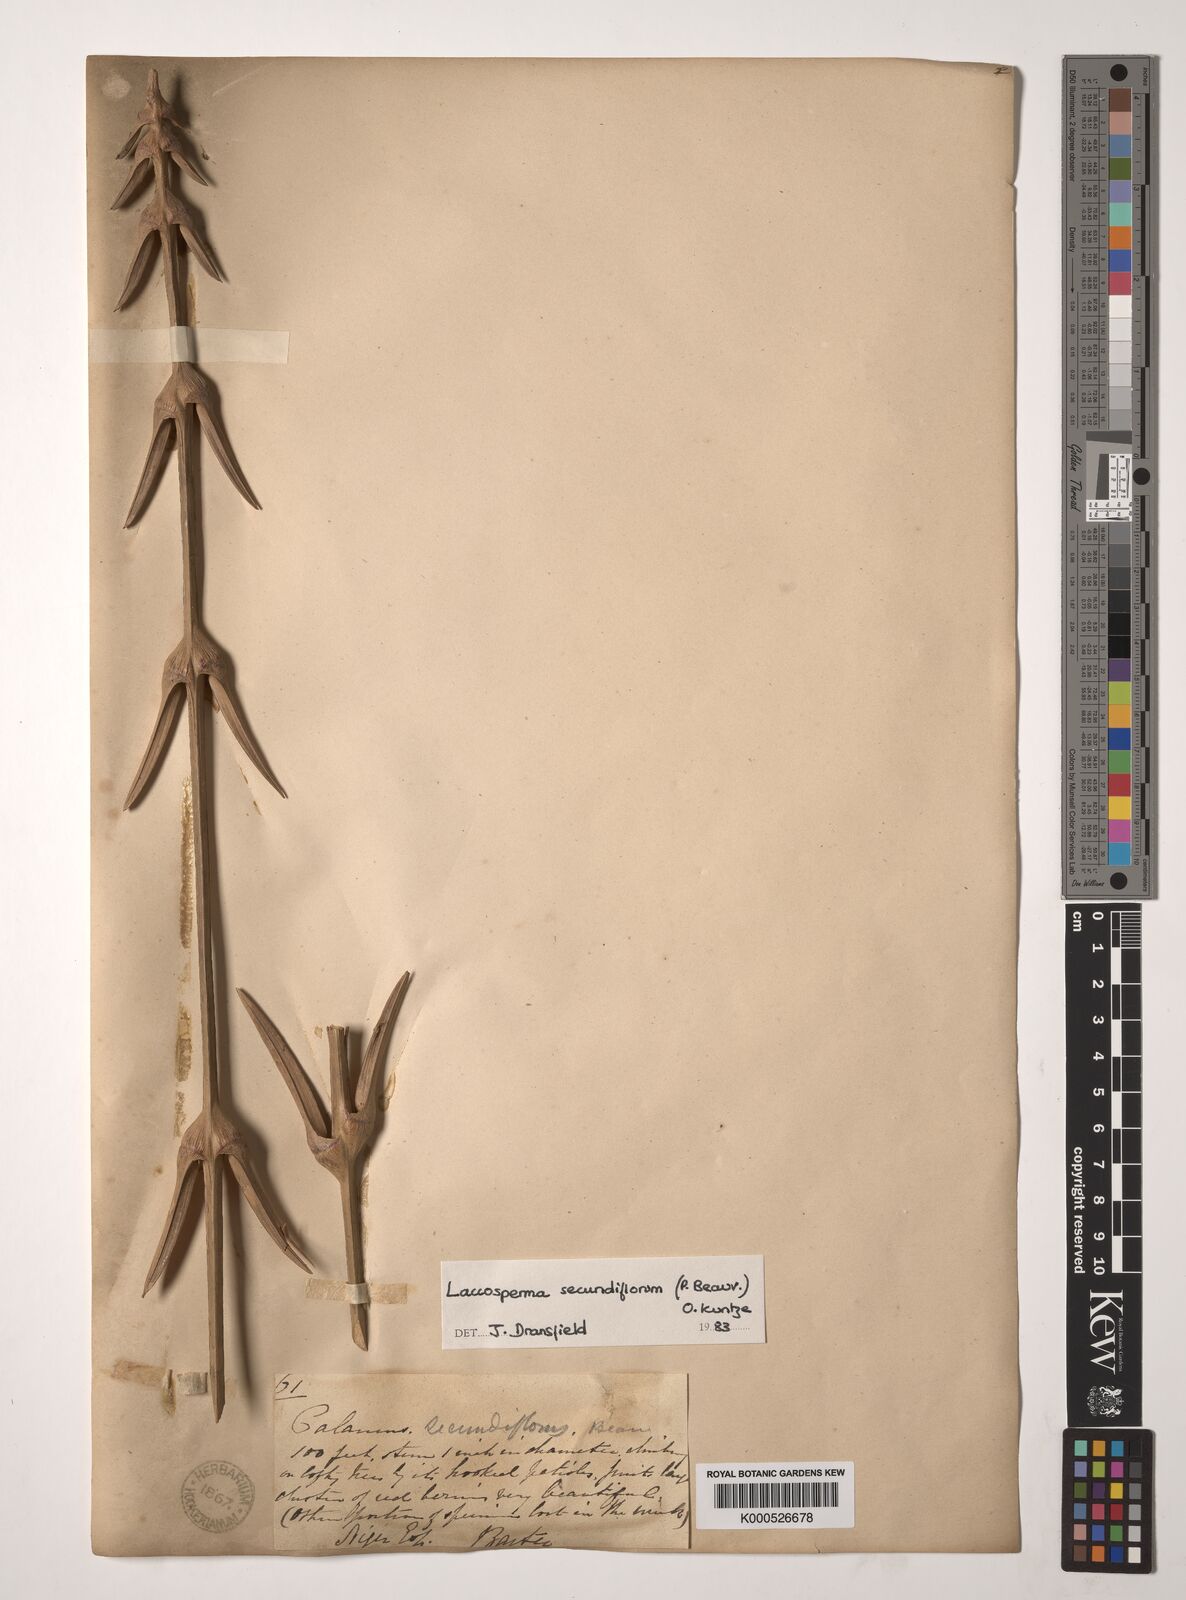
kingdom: Plantae
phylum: Tracheophyta
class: Liliopsida
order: Arecales
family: Arecaceae
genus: Laccosperma
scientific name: Laccosperma secundiflorum
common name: Rattan
